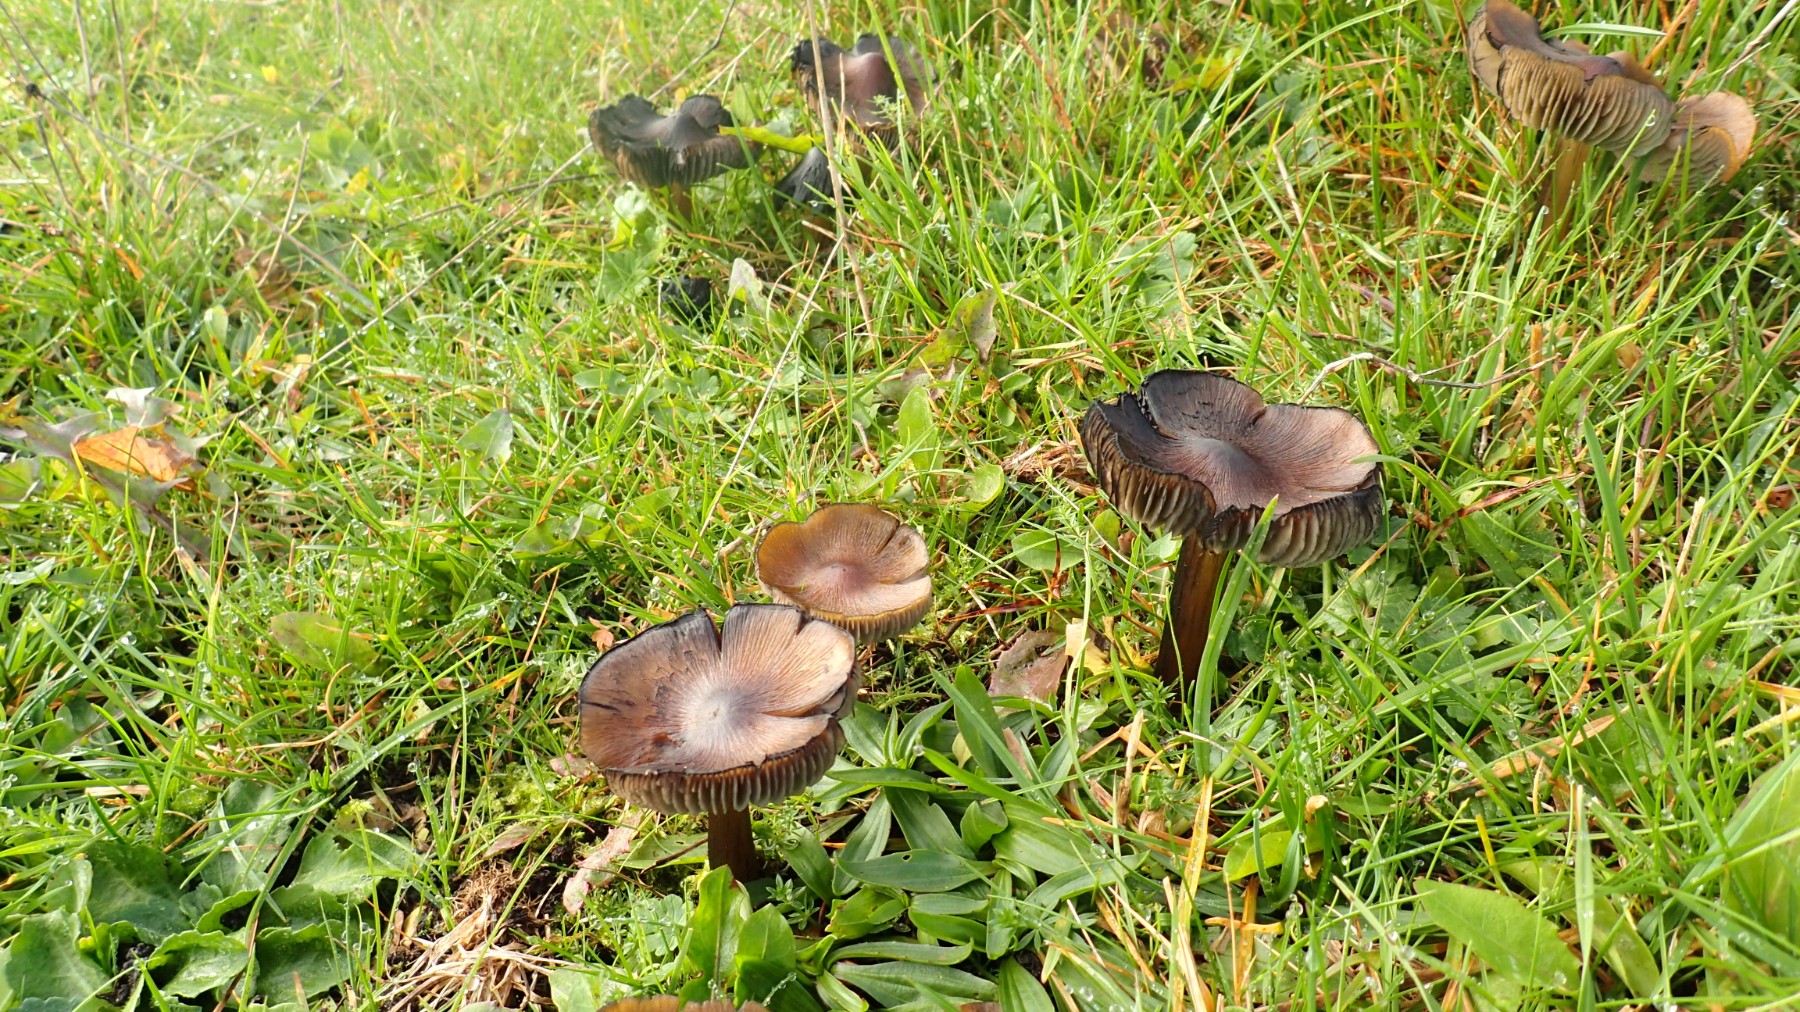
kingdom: Fungi
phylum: Basidiomycota
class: Agaricomycetes
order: Agaricales
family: Hygrophoraceae
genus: Hygrocybe
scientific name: Hygrocybe conica
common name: kegle-vokshat
